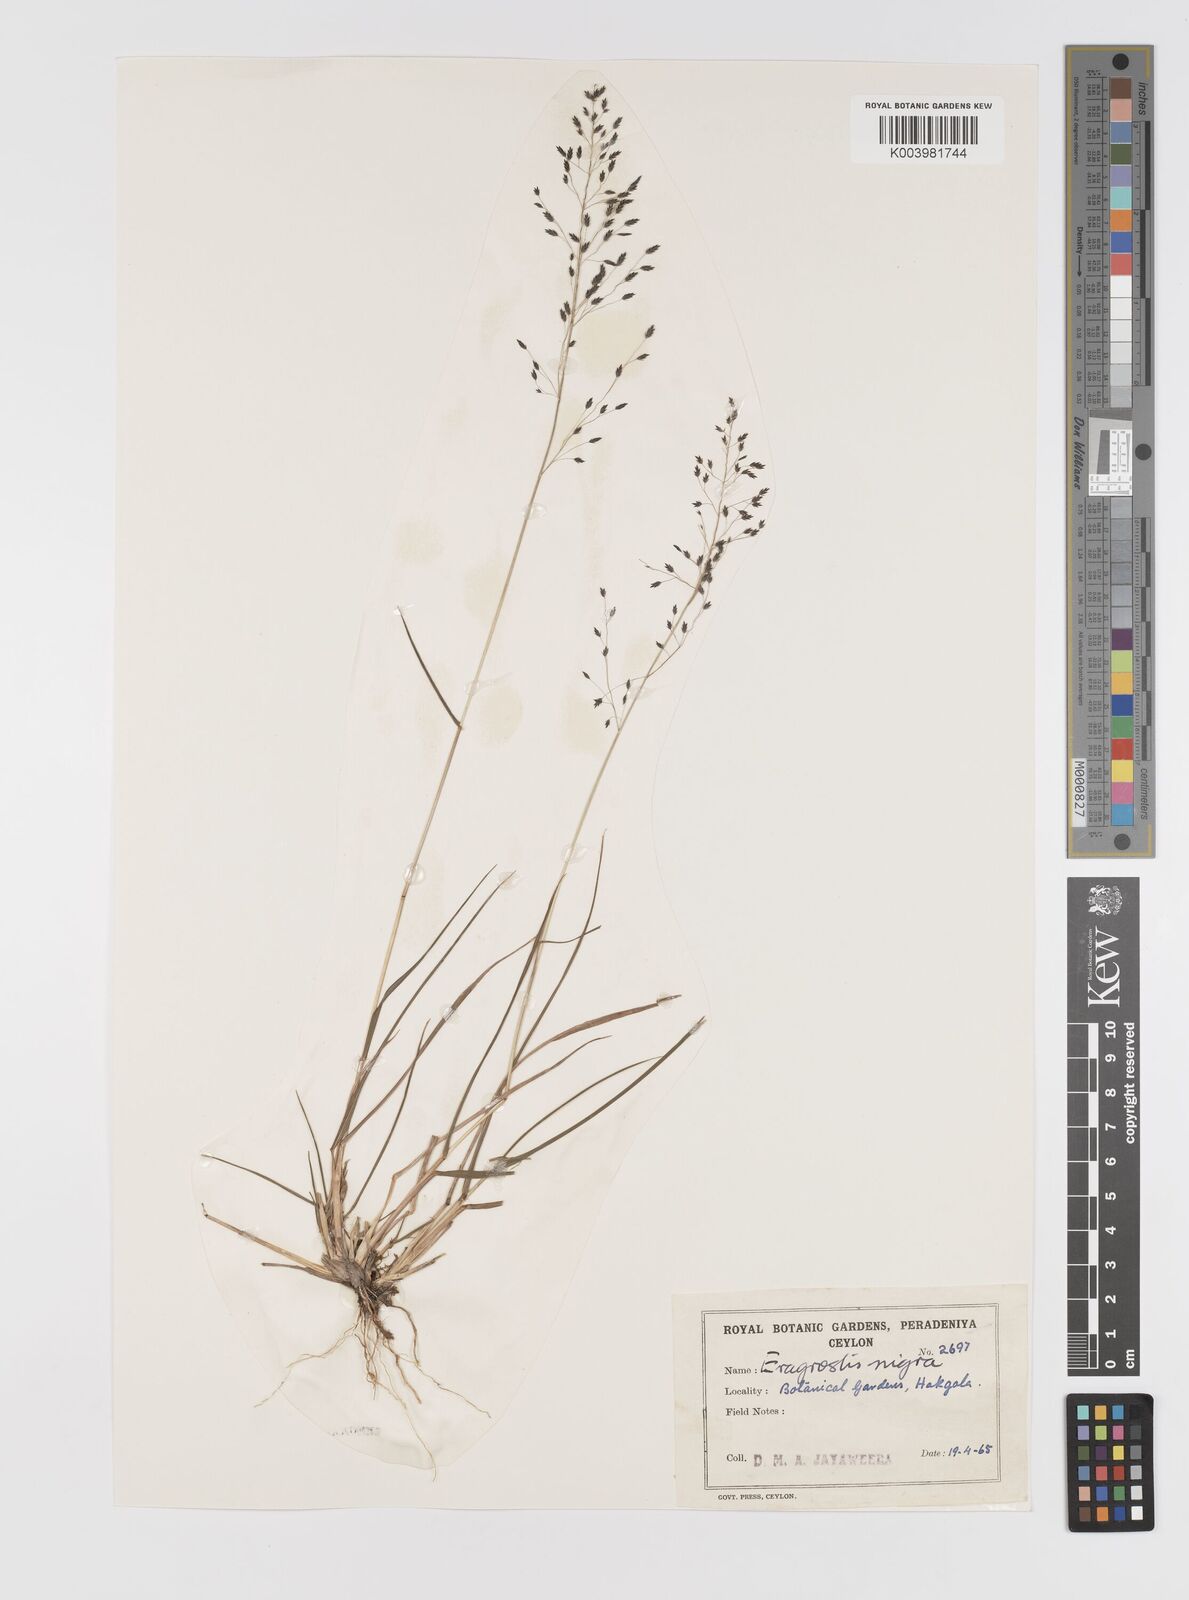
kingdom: Plantae
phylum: Tracheophyta
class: Liliopsida
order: Poales
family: Poaceae
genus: Eragrostis
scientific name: Eragrostis nigra
